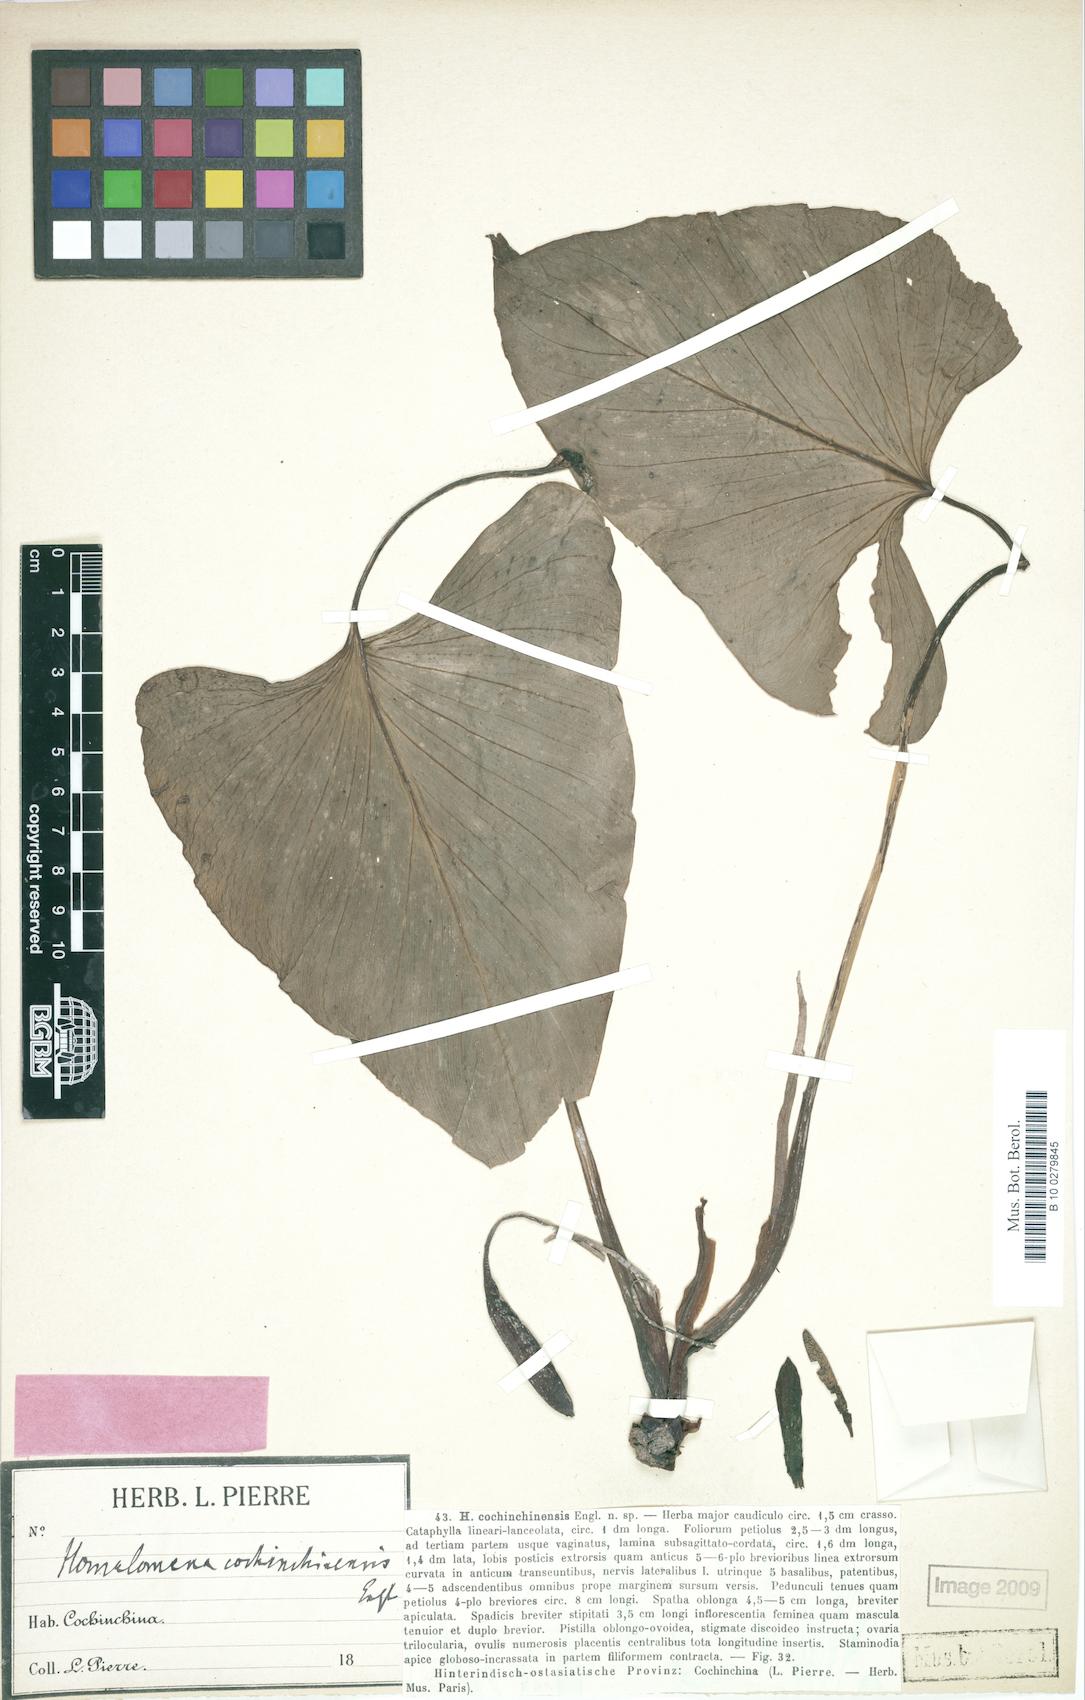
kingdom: Plantae
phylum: Tracheophyta
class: Liliopsida
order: Alismatales
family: Araceae
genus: Homalomena
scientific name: Homalomena cochinchinensis
